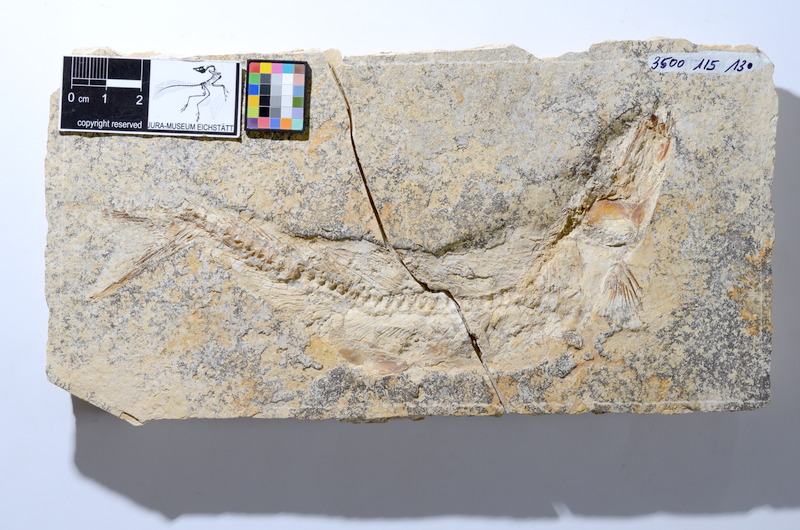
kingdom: Animalia
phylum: Chordata
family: Ascalaboidae
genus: Tharsis
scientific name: Tharsis dubius
